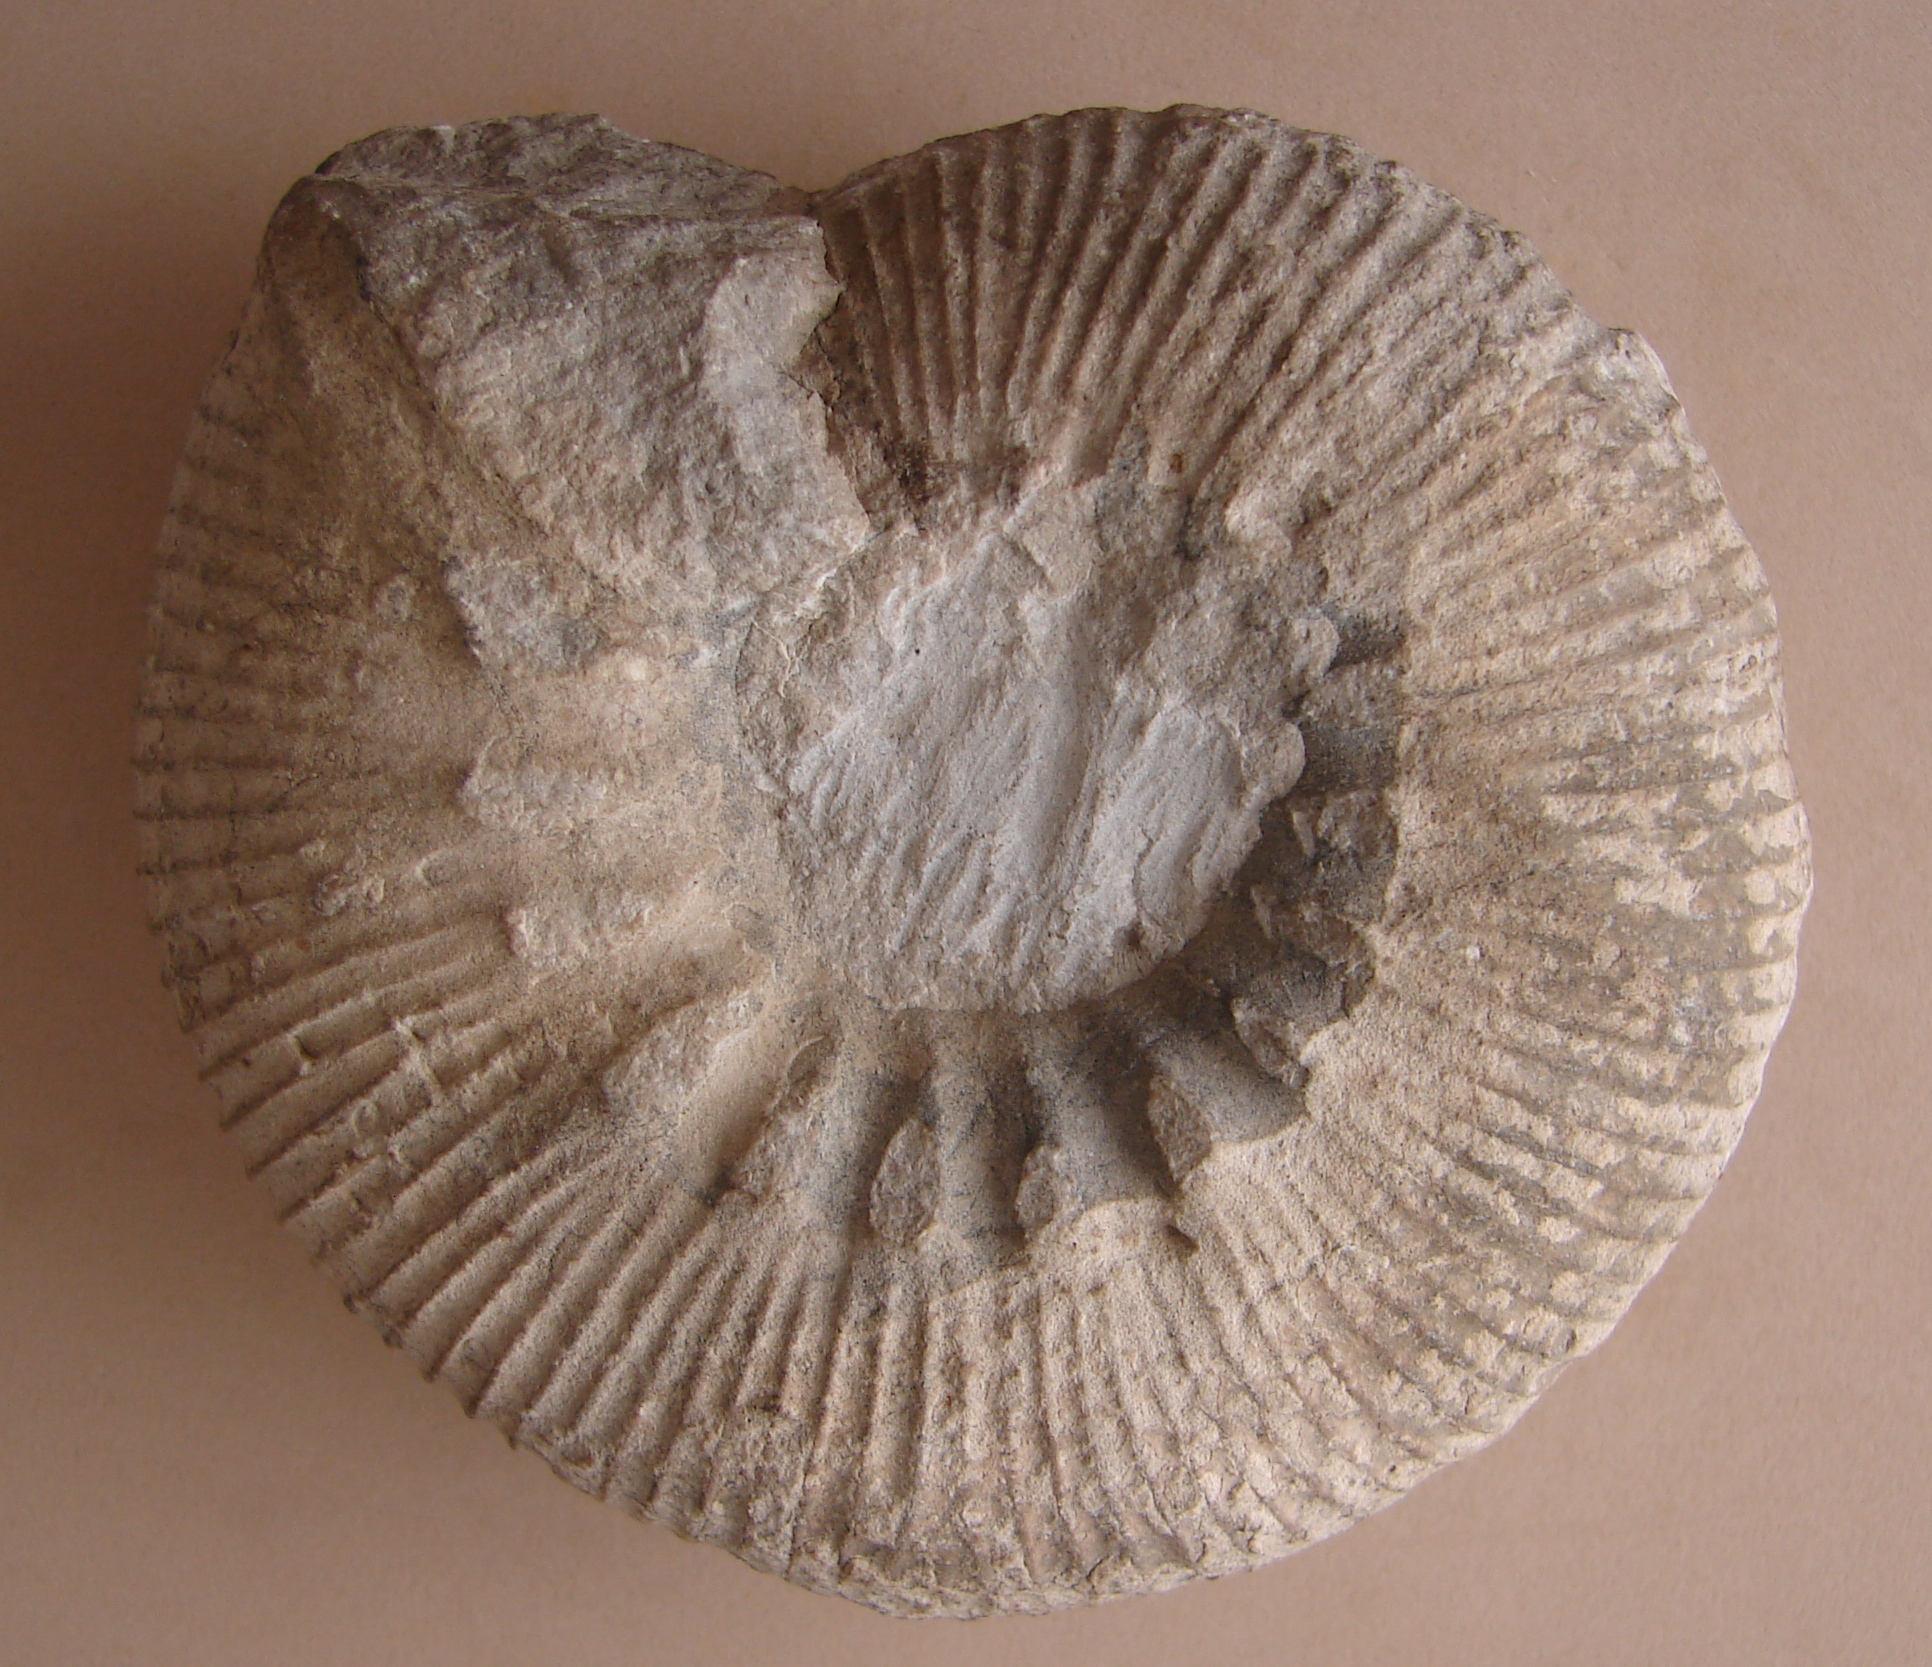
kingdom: Animalia
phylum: Mollusca
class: Cephalopoda
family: Olcostephanidae
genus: Olcostephanus
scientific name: Olcostephanus astierianus
